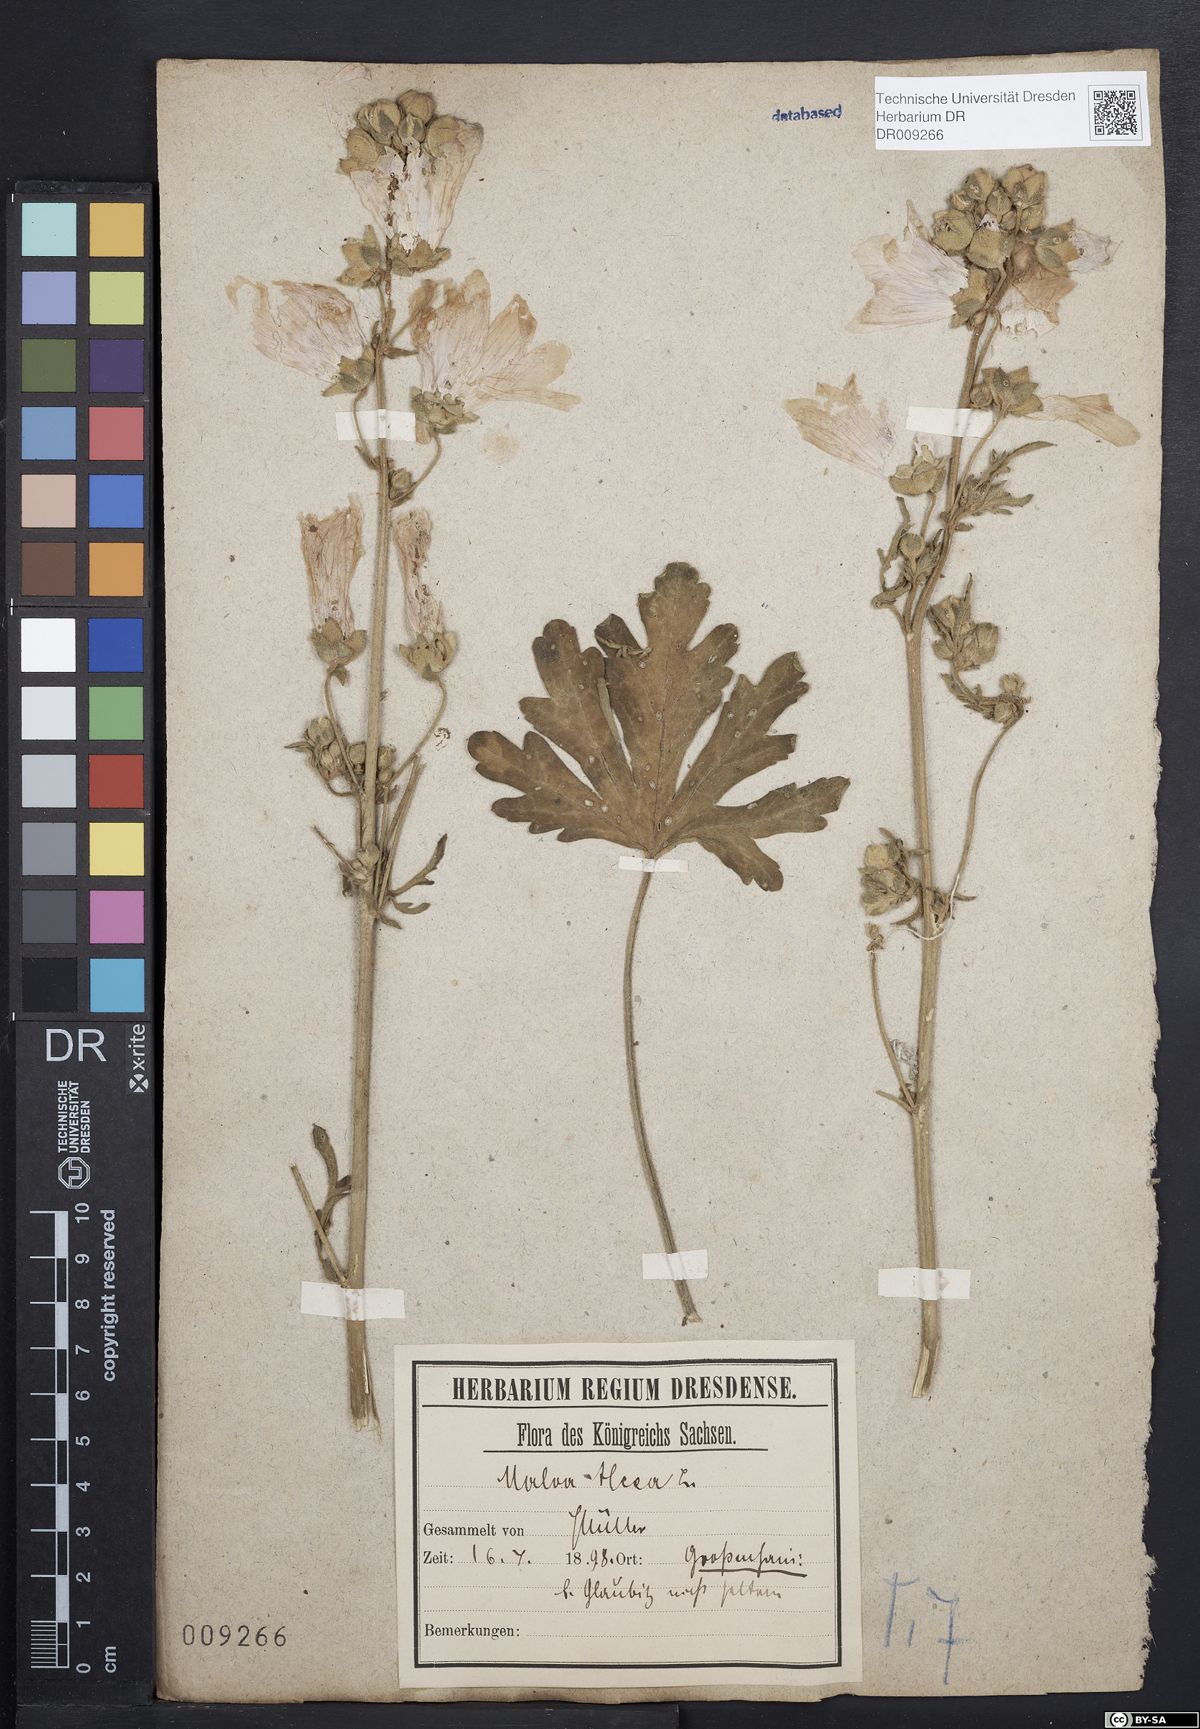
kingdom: Plantae
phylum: Tracheophyta
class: Magnoliopsida
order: Malvales
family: Malvaceae
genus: Malva
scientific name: Malva alcea
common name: Greater musk-mallow
